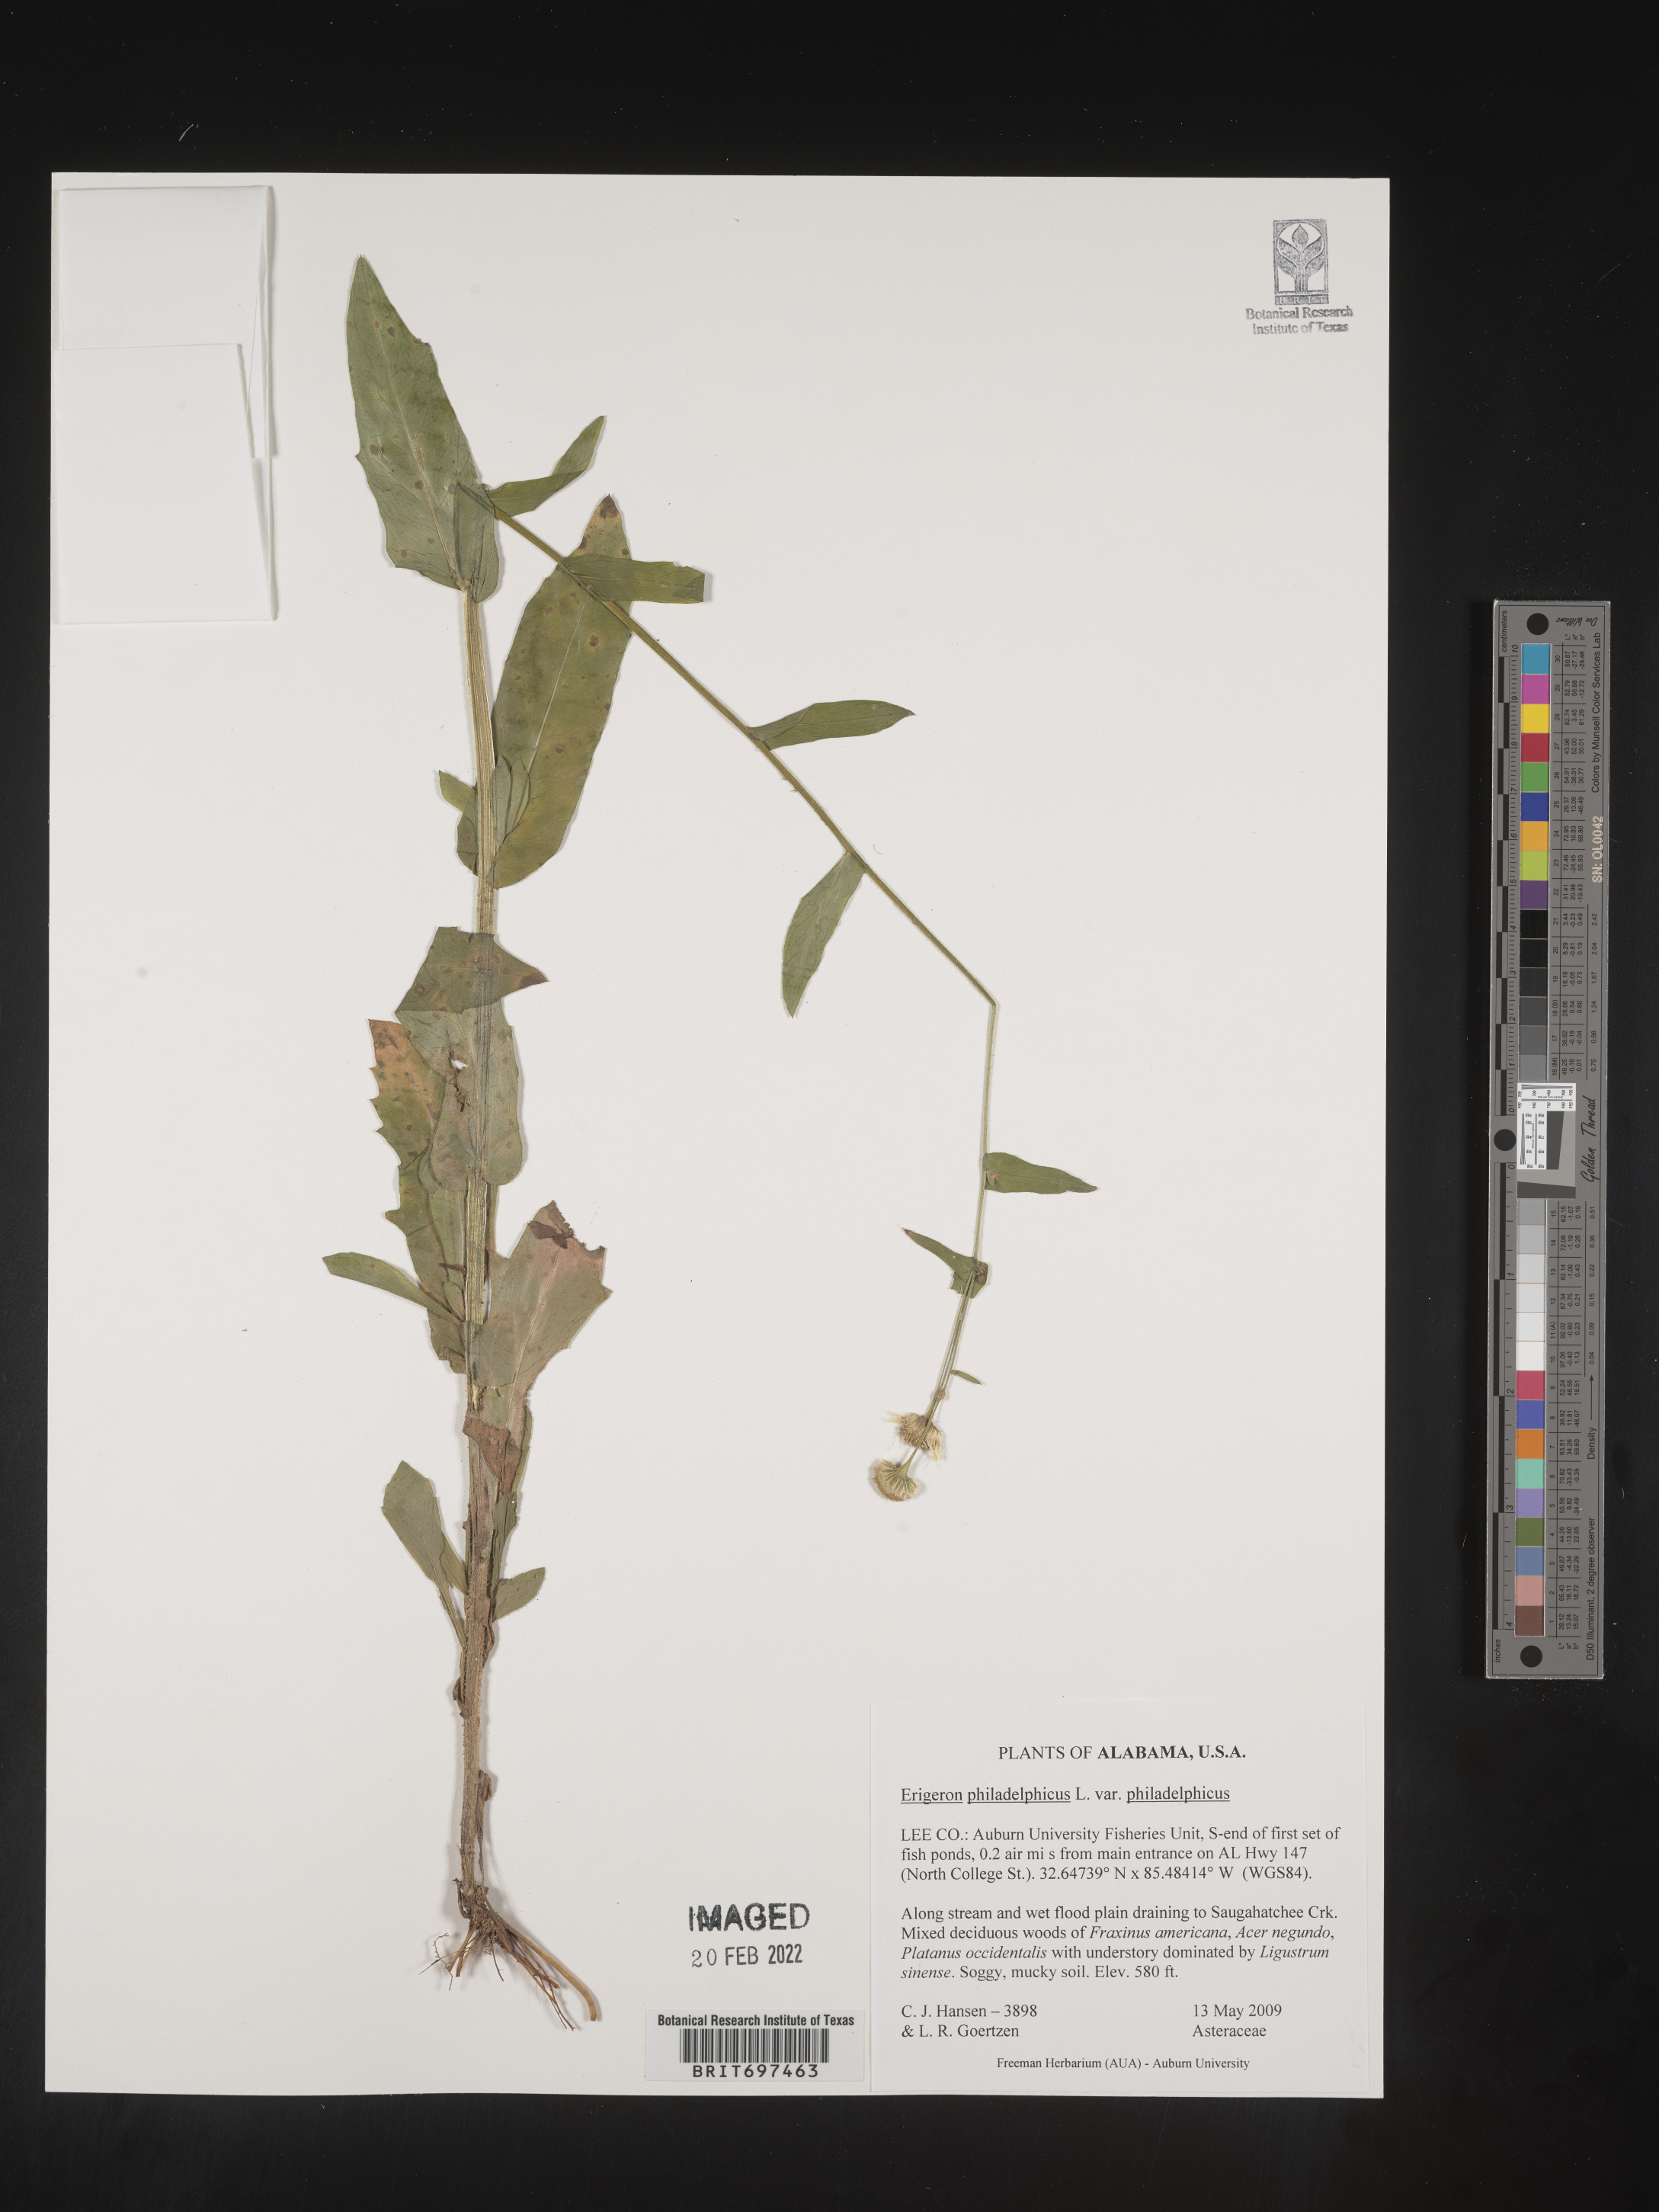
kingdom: Plantae
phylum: Tracheophyta
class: Magnoliopsida
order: Asterales
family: Asteraceae
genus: Erigeron
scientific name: Erigeron philadelphicus
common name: Robin's-plantain
